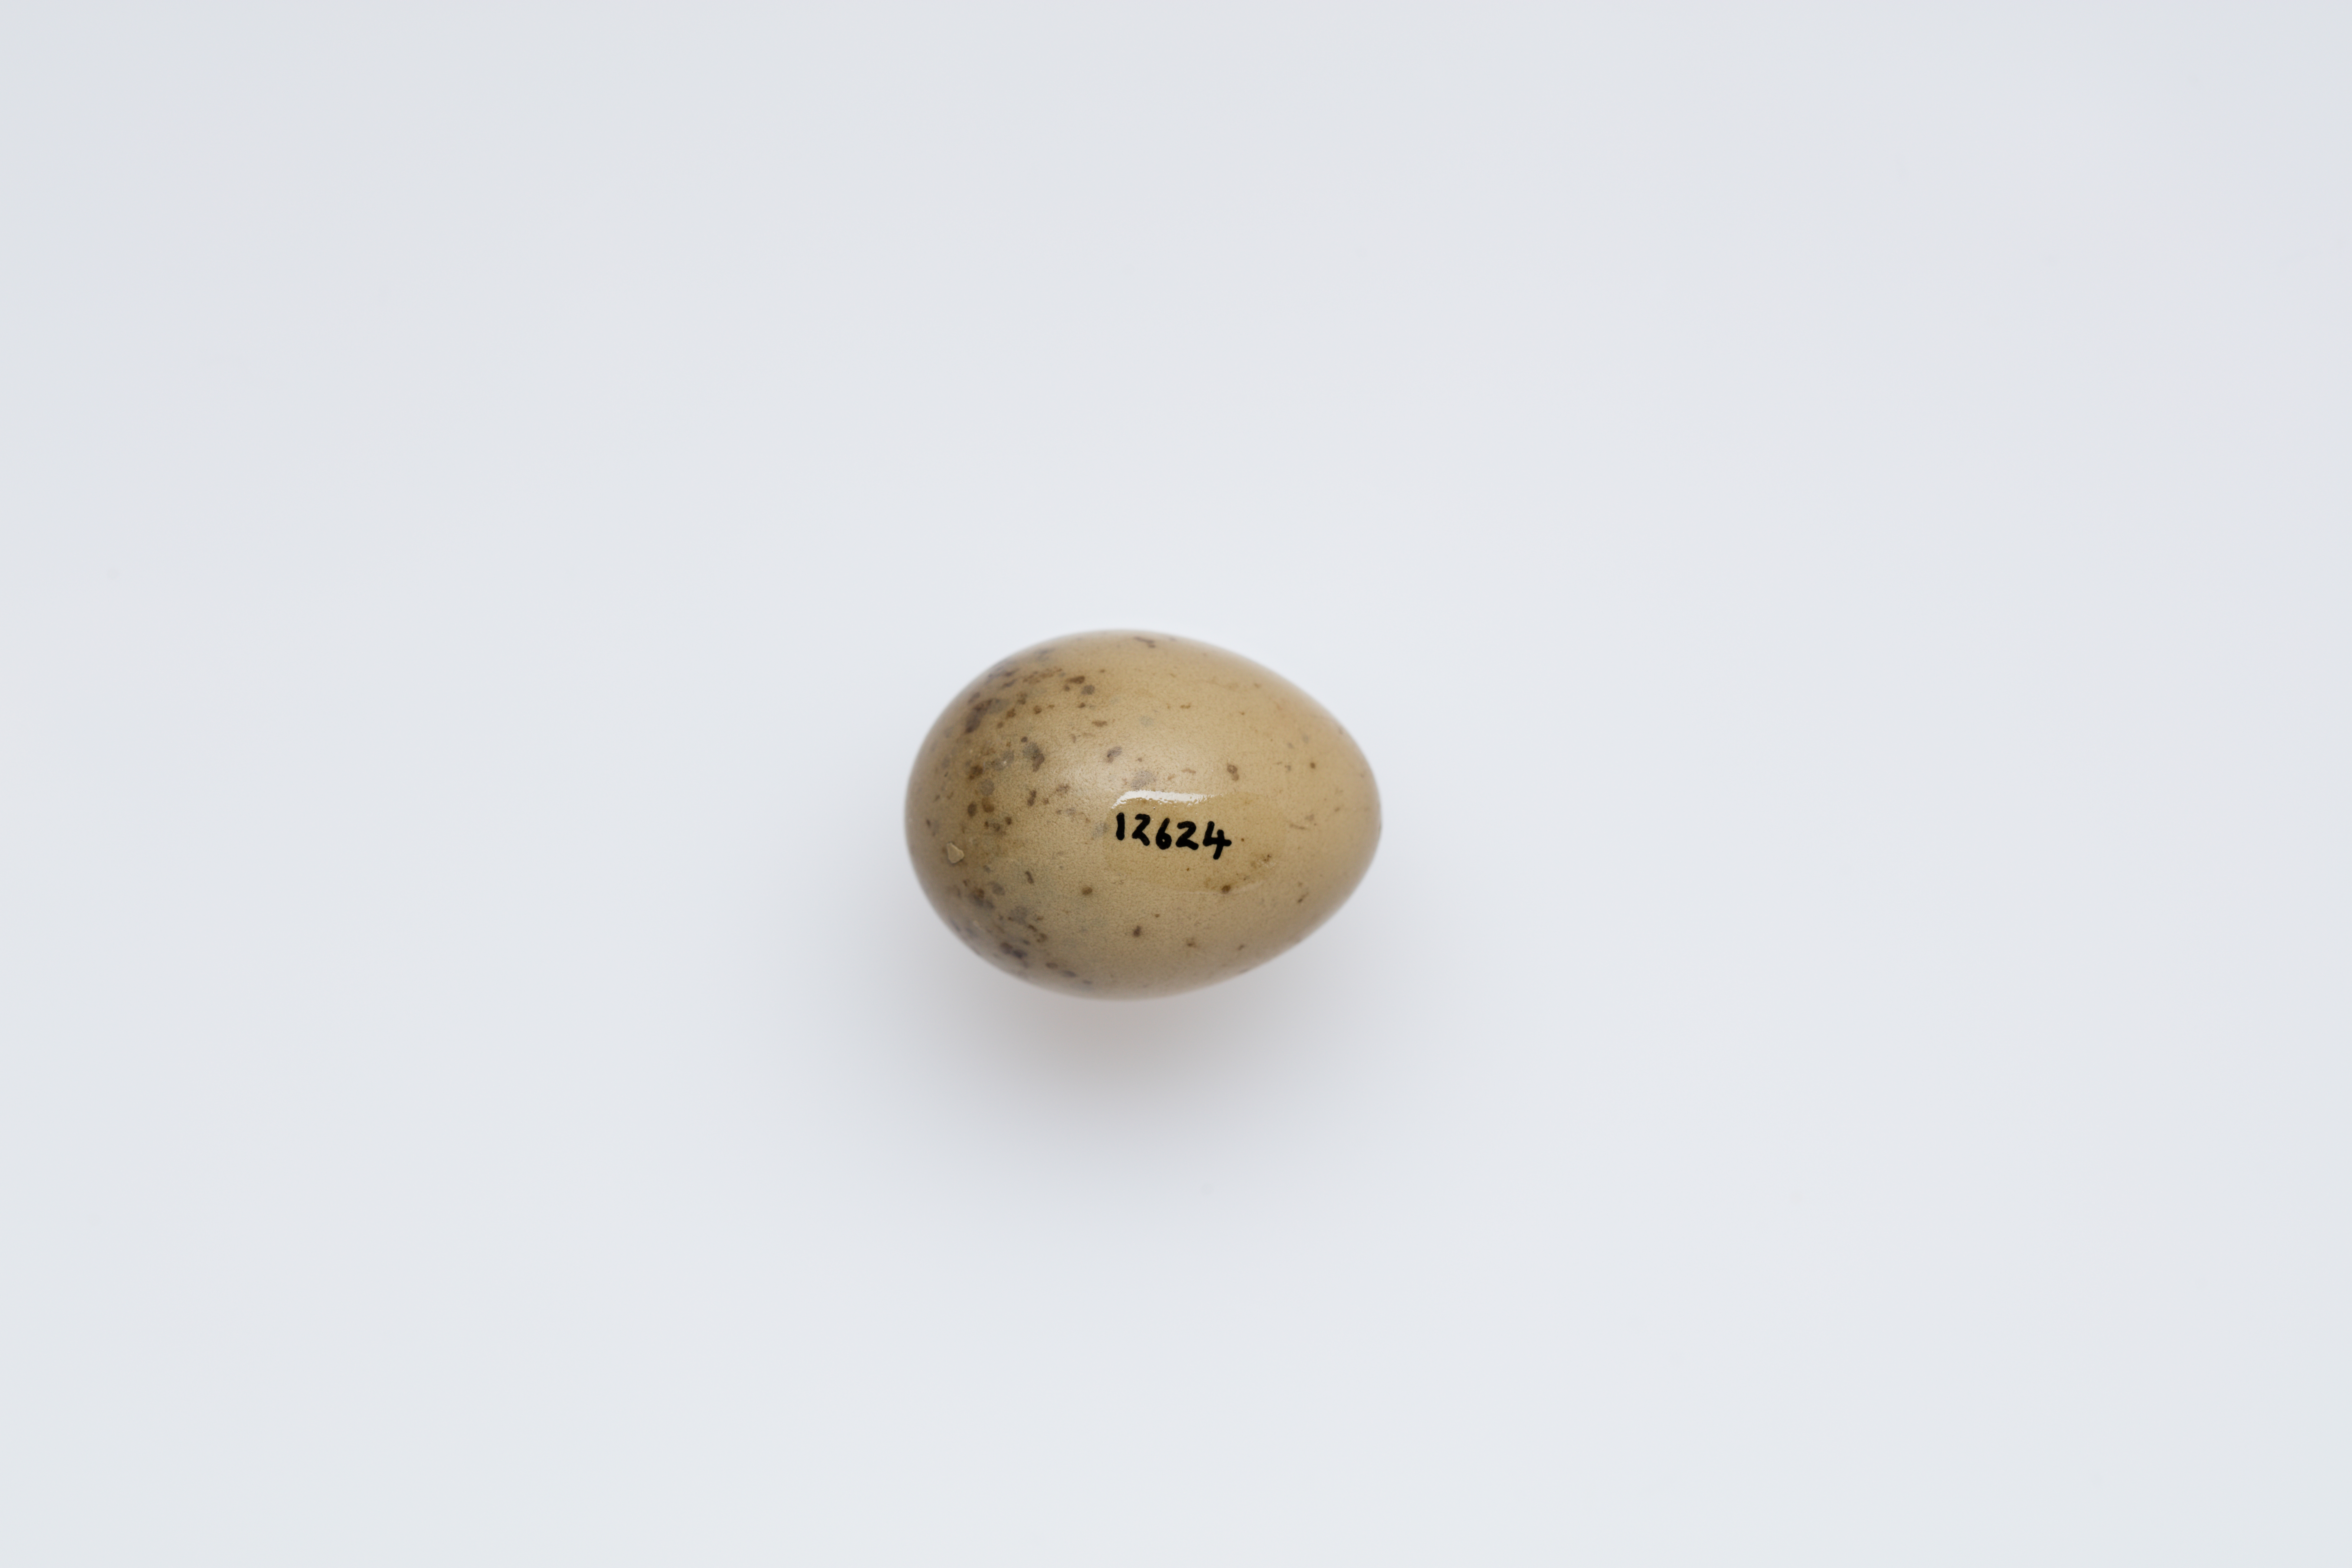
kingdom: Animalia
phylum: Chordata
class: Aves
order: Passeriformes
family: Pachycephalidae
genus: Pachycephala
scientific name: Pachycephala rufiventris
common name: Rufous whistler
